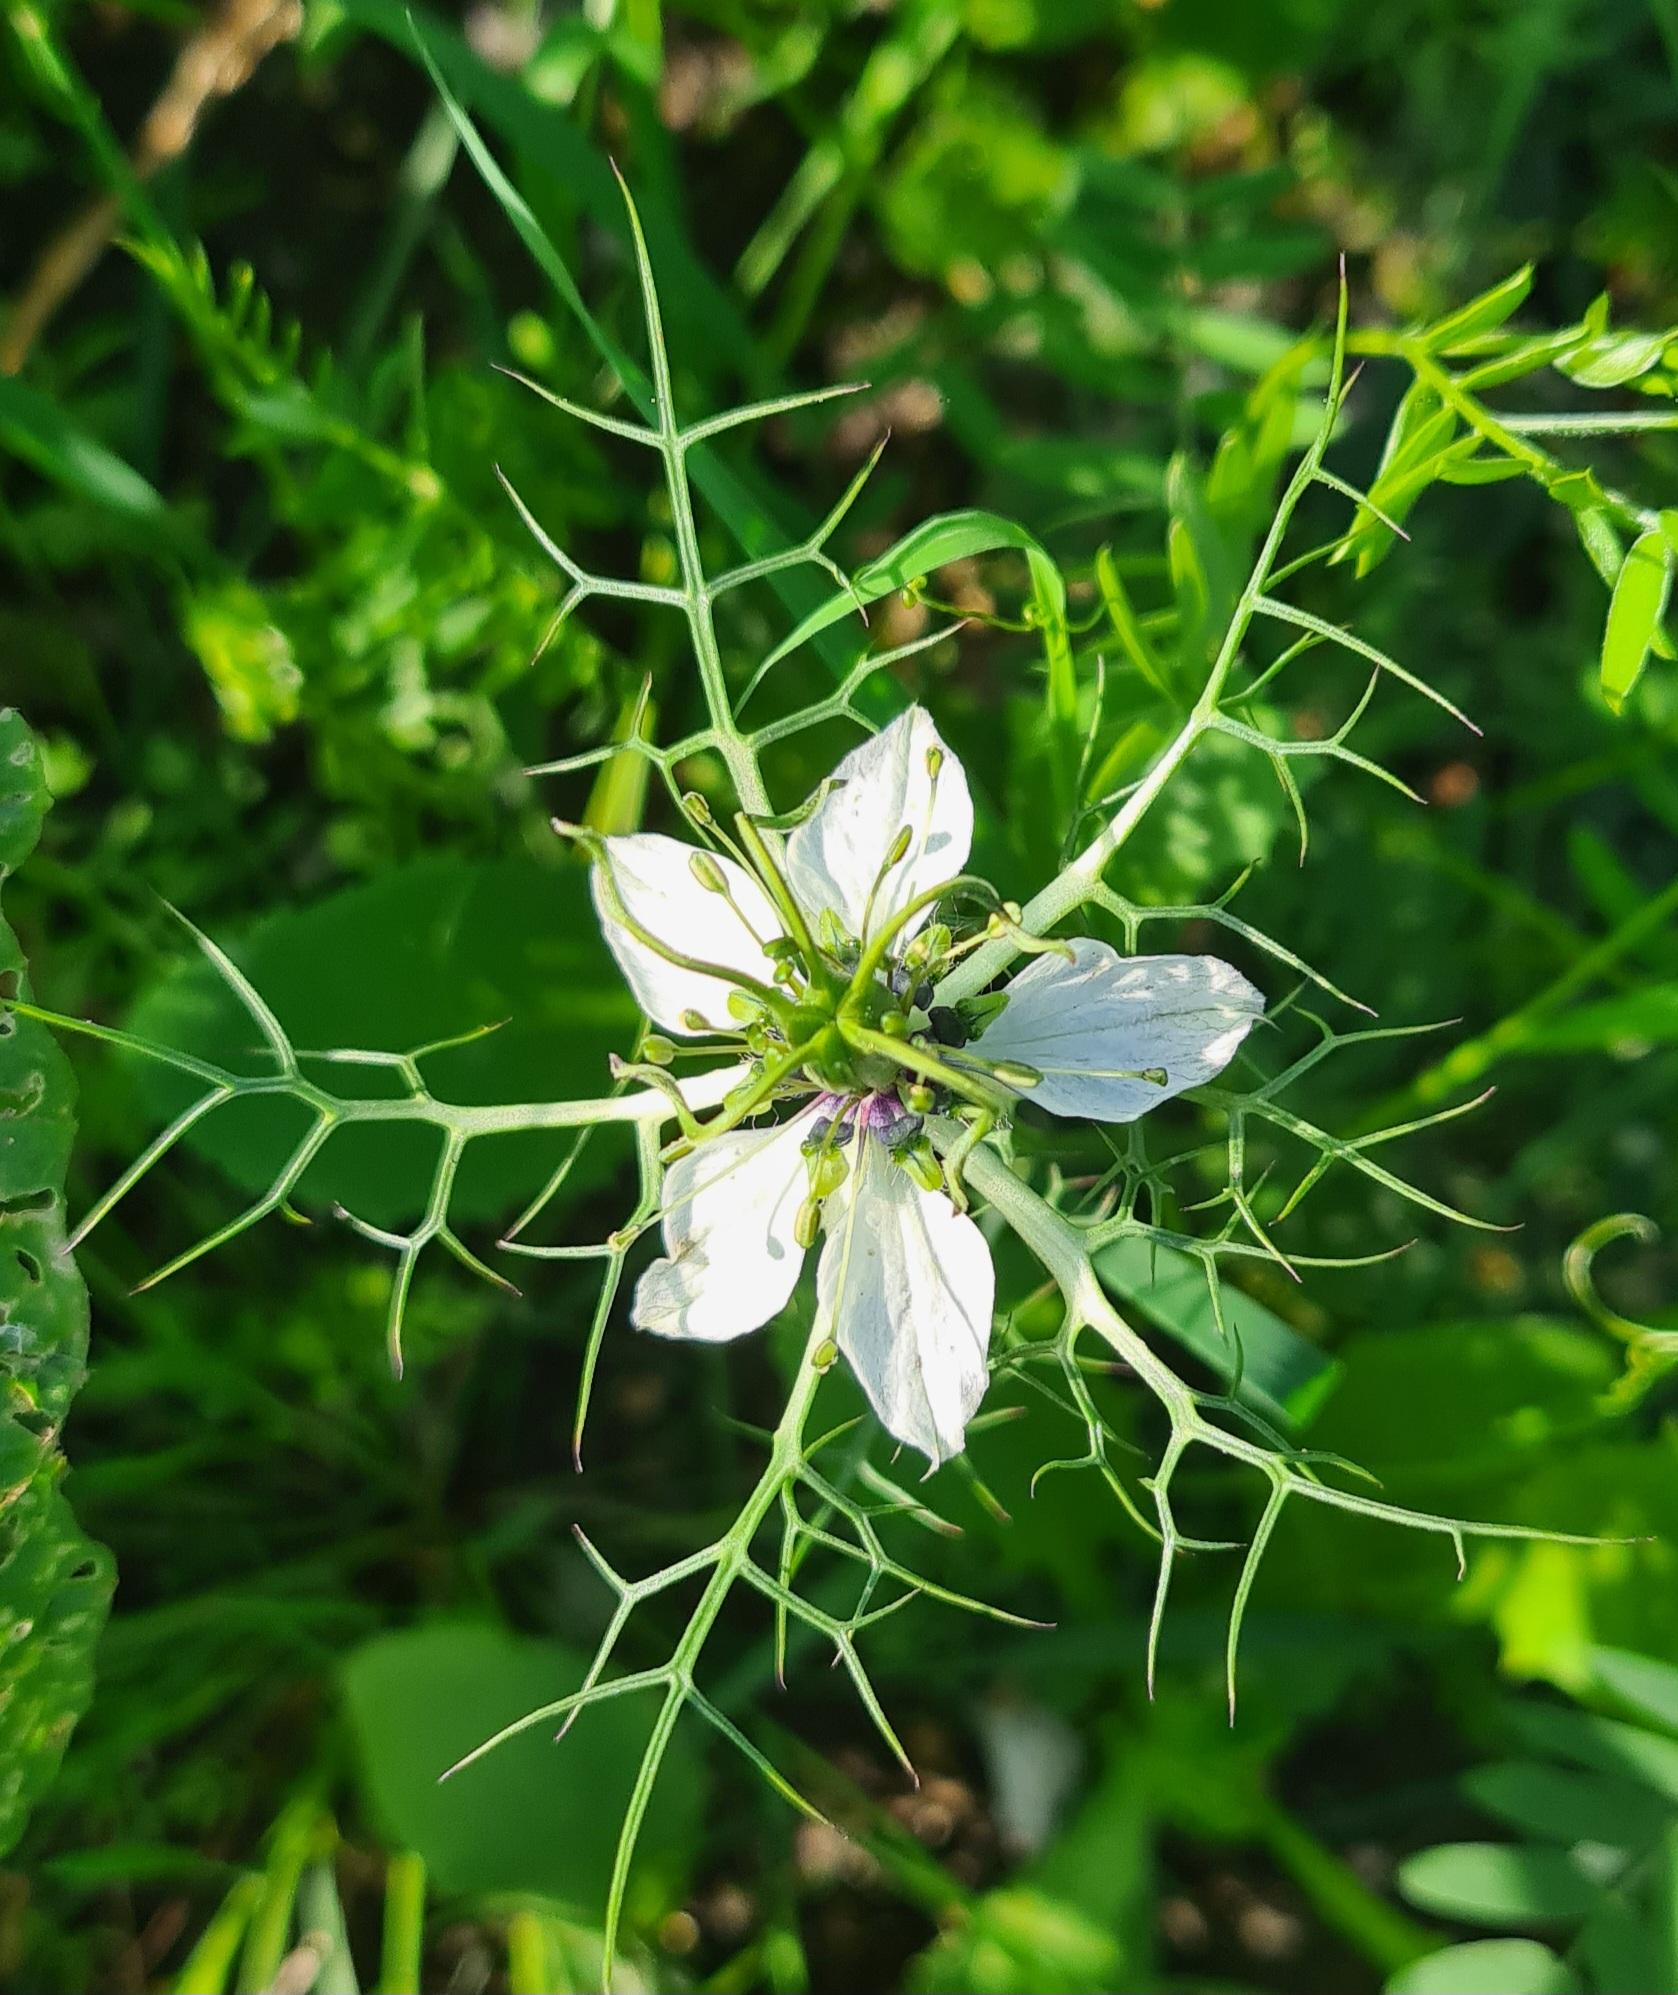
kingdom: Plantae
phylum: Tracheophyta
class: Magnoliopsida
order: Ranunculales
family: Ranunculaceae
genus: Nigella
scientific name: Nigella damascena
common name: Jomfru i det grønne
